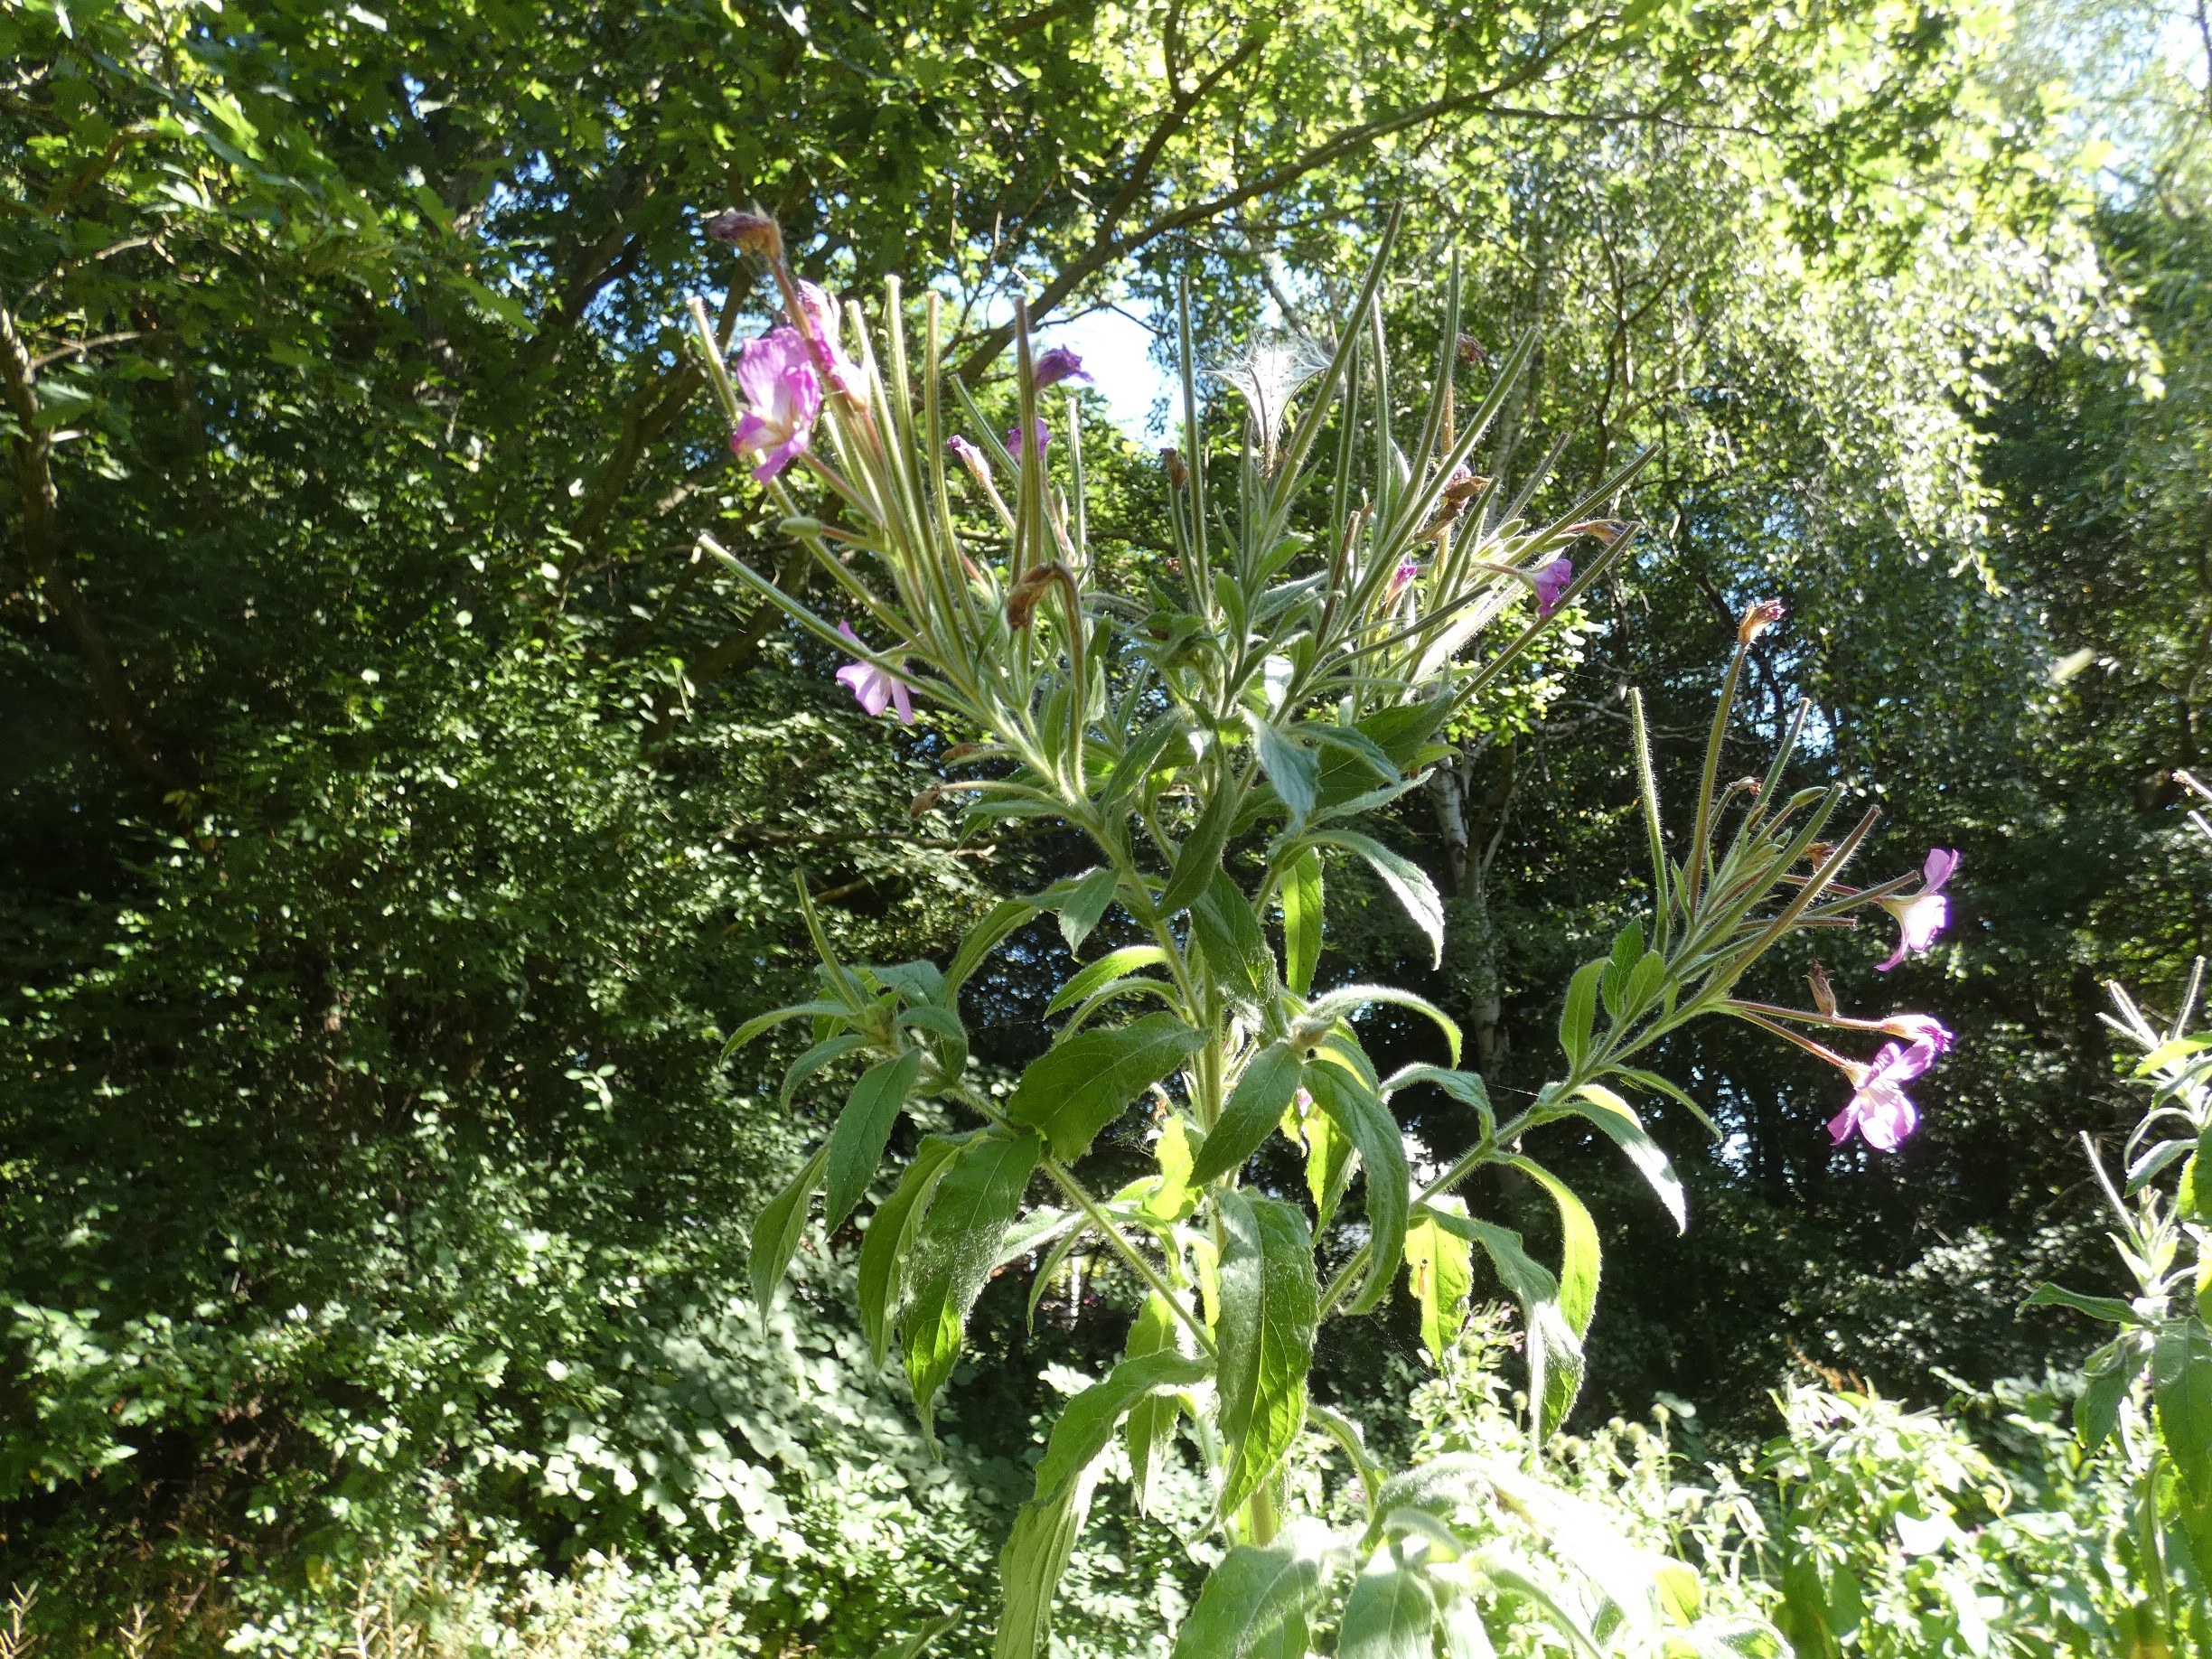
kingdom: Plantae
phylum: Tracheophyta
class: Magnoliopsida
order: Myrtales
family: Onagraceae
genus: Epilobium
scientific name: Epilobium hirsutum
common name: Lådden dueurt
